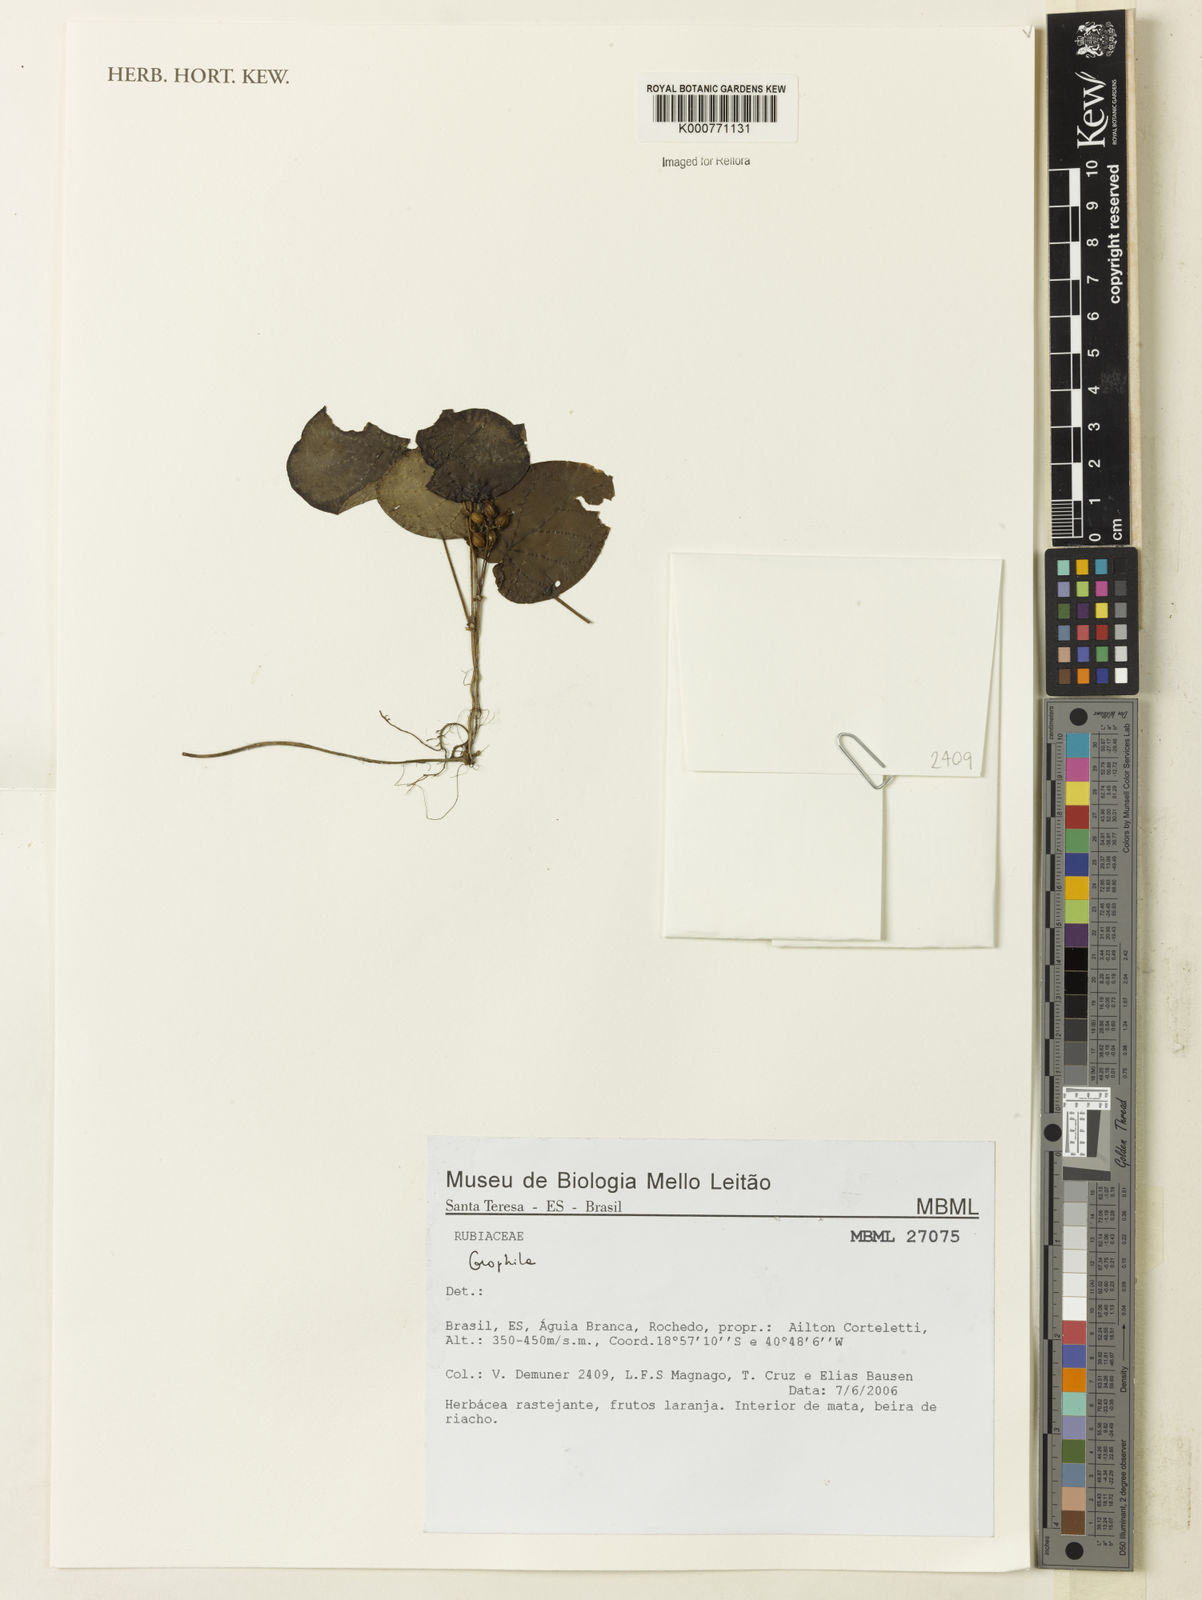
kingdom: Plantae
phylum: Tracheophyta
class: Magnoliopsida
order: Gentianales
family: Rubiaceae
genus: Geophila
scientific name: Geophila
